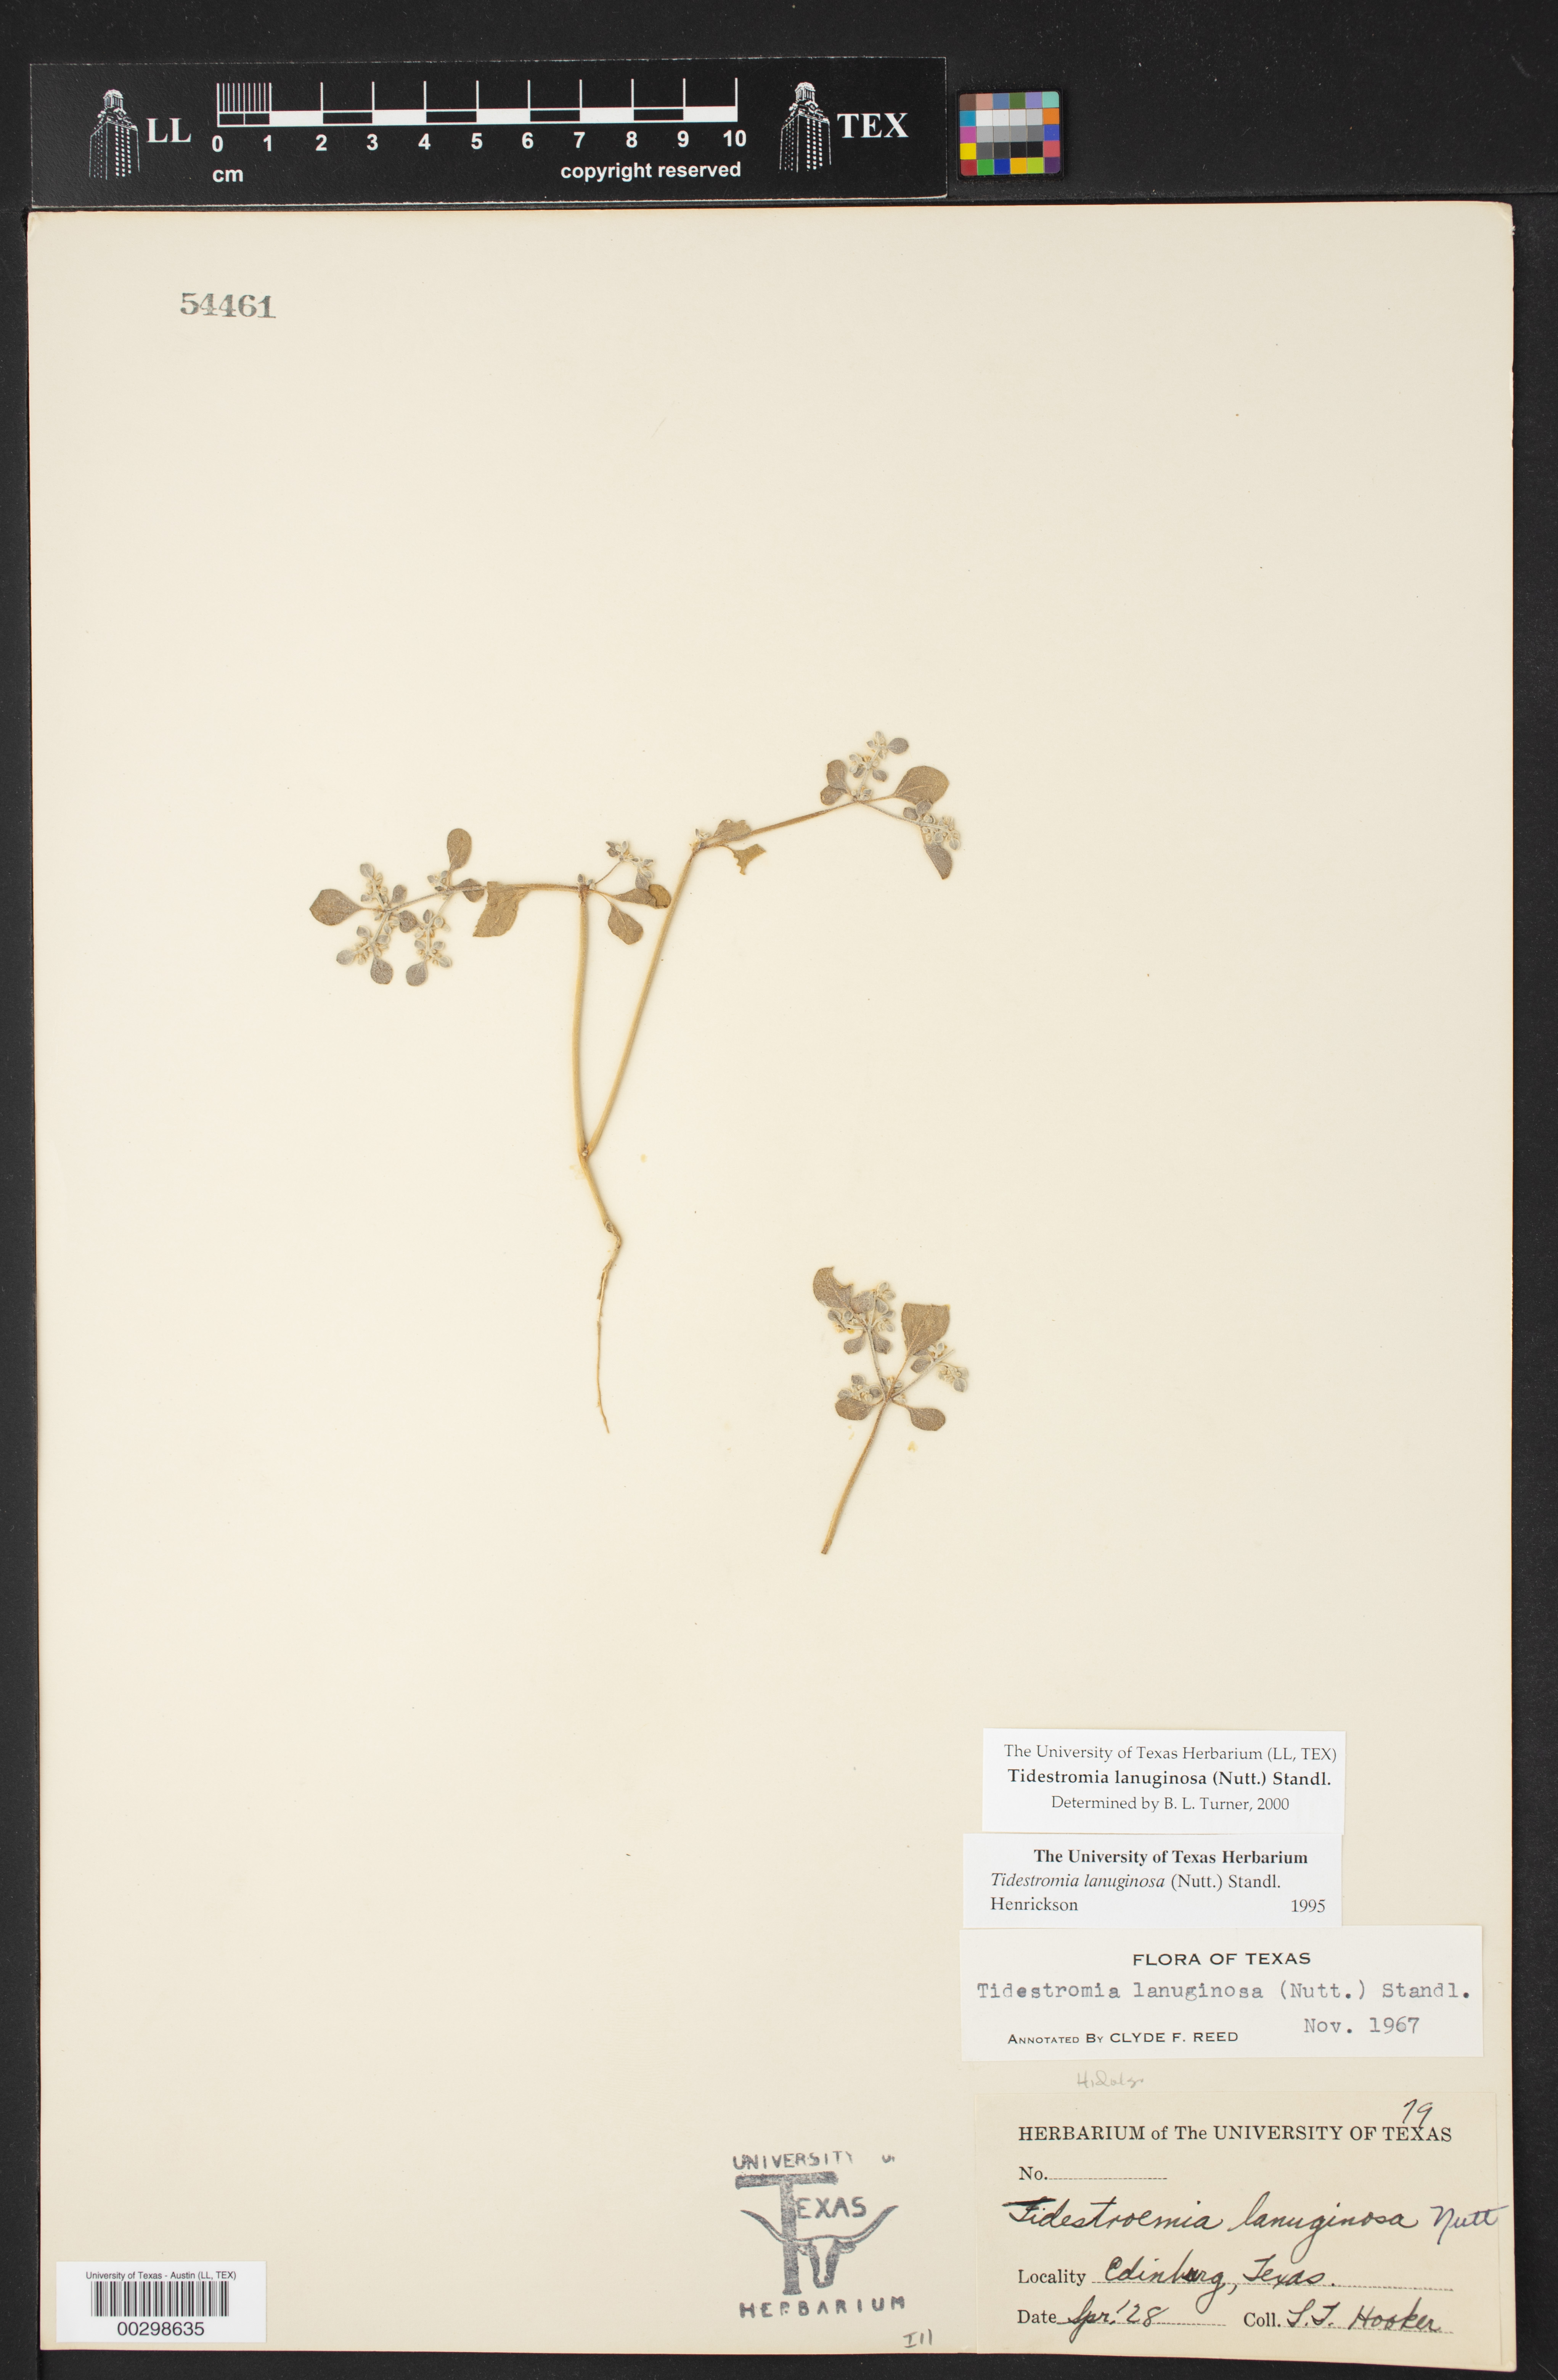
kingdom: Plantae
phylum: Tracheophyta
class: Magnoliopsida
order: Caryophyllales
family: Amaranthaceae
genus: Tidestromia
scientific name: Tidestromia lanuginosa
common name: Woolly tidestromia
